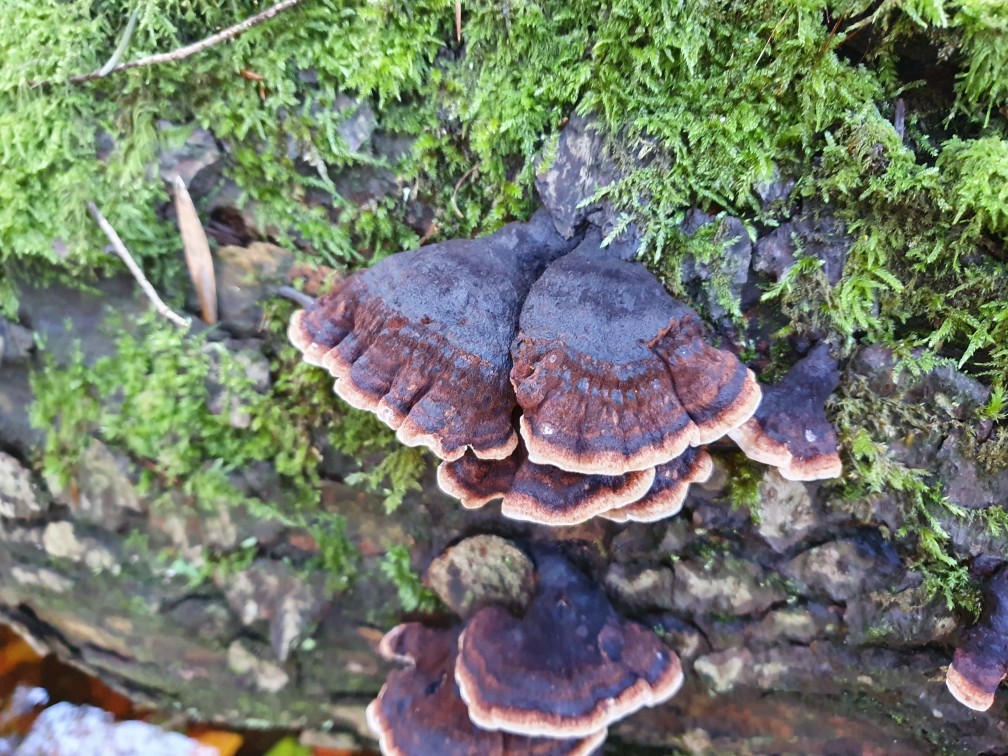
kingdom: Fungi
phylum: Basidiomycota
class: Agaricomycetes
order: Polyporales
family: Ischnodermataceae
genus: Ischnoderma
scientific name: Ischnoderma benzoinum
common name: gran-tjæreporesvamp
